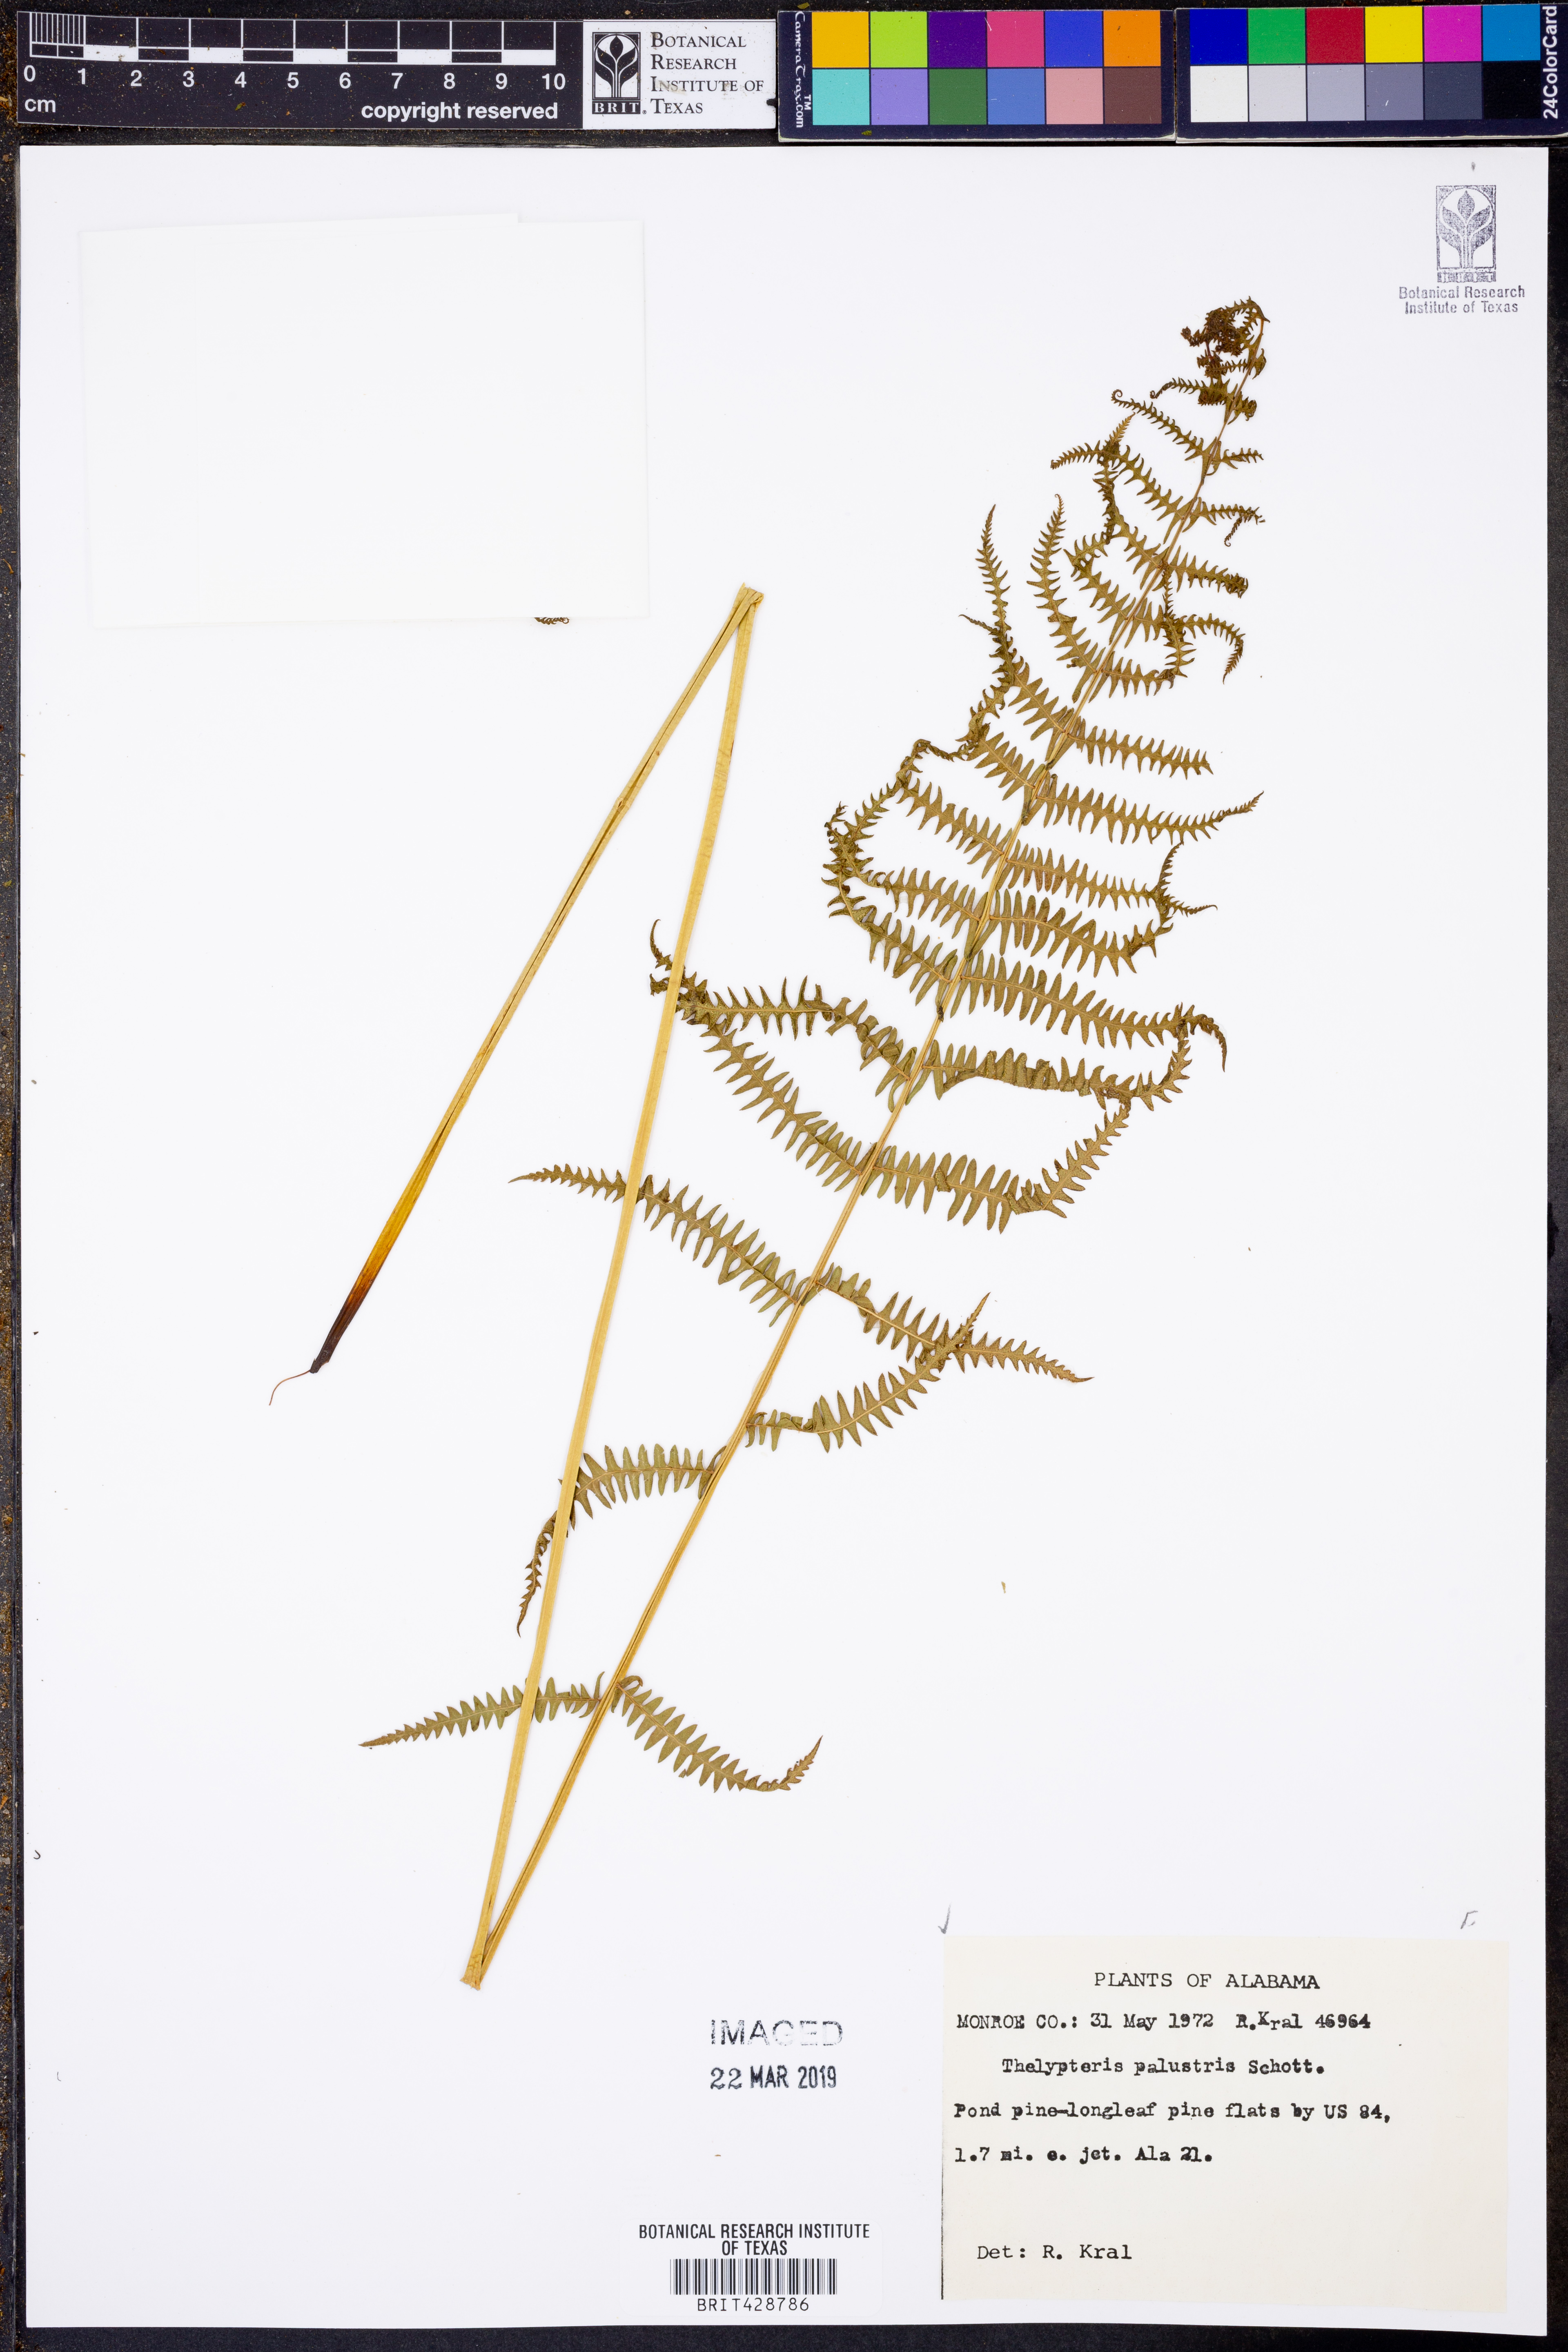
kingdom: Plantae
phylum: Tracheophyta
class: Polypodiopsida
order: Polypodiales
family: Thelypteridaceae
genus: Thelypteris
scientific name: Thelypteris palustris
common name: Marsh fern
